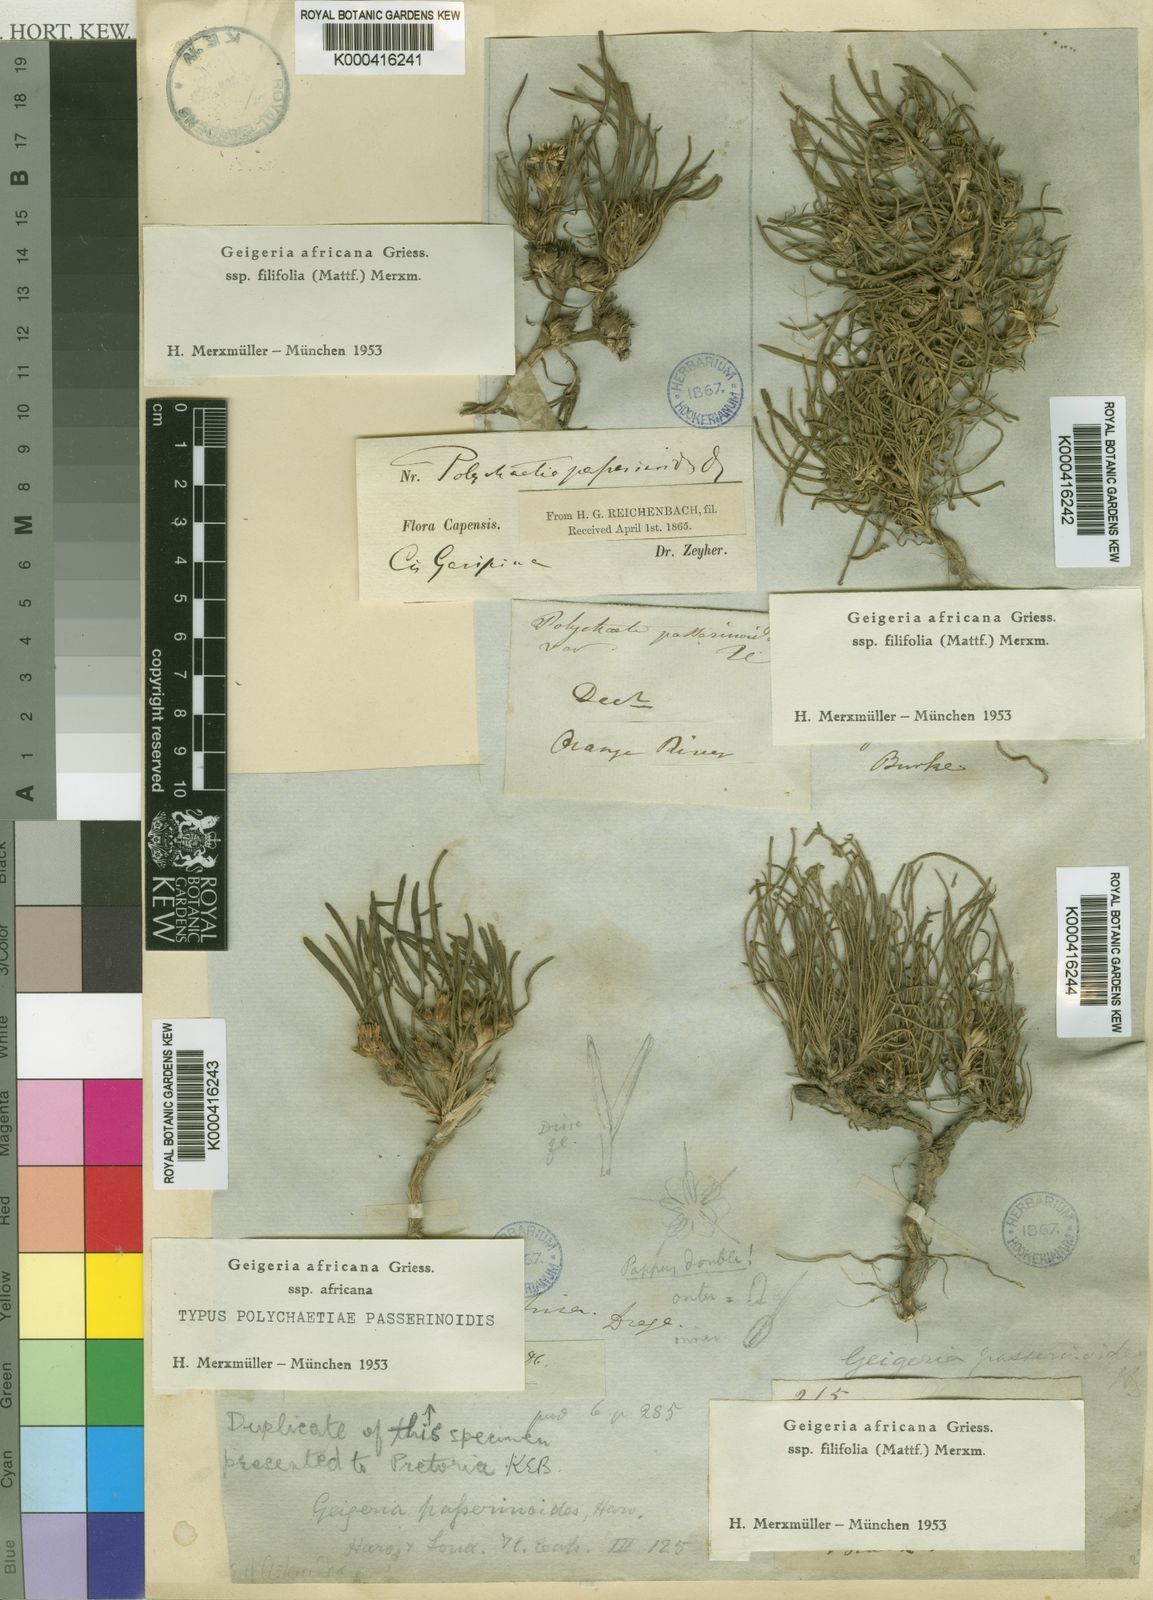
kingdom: Plantae
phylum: Tracheophyta
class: Magnoliopsida
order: Asterales
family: Asteraceae
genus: Geigeria
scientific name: Geigeria africana
